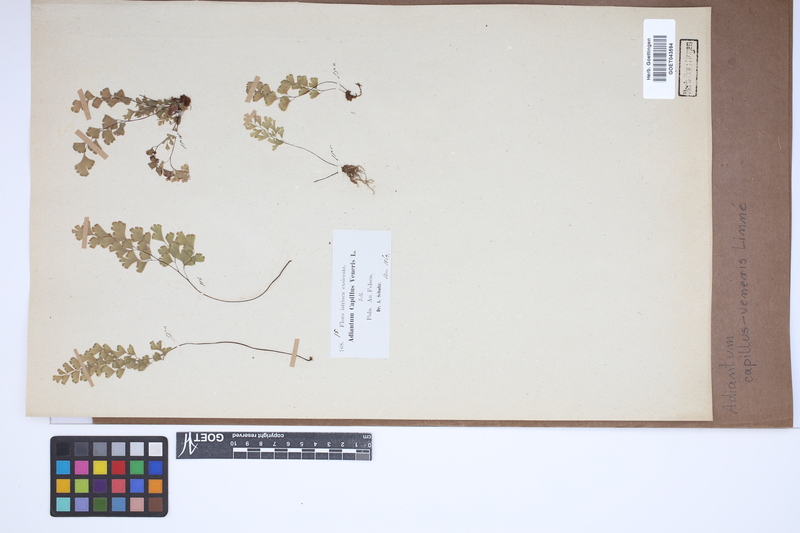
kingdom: Plantae
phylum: Tracheophyta
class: Polypodiopsida
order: Polypodiales
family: Pteridaceae
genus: Adiantum
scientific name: Adiantum capillus-veneris
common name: Maidenhair fern
